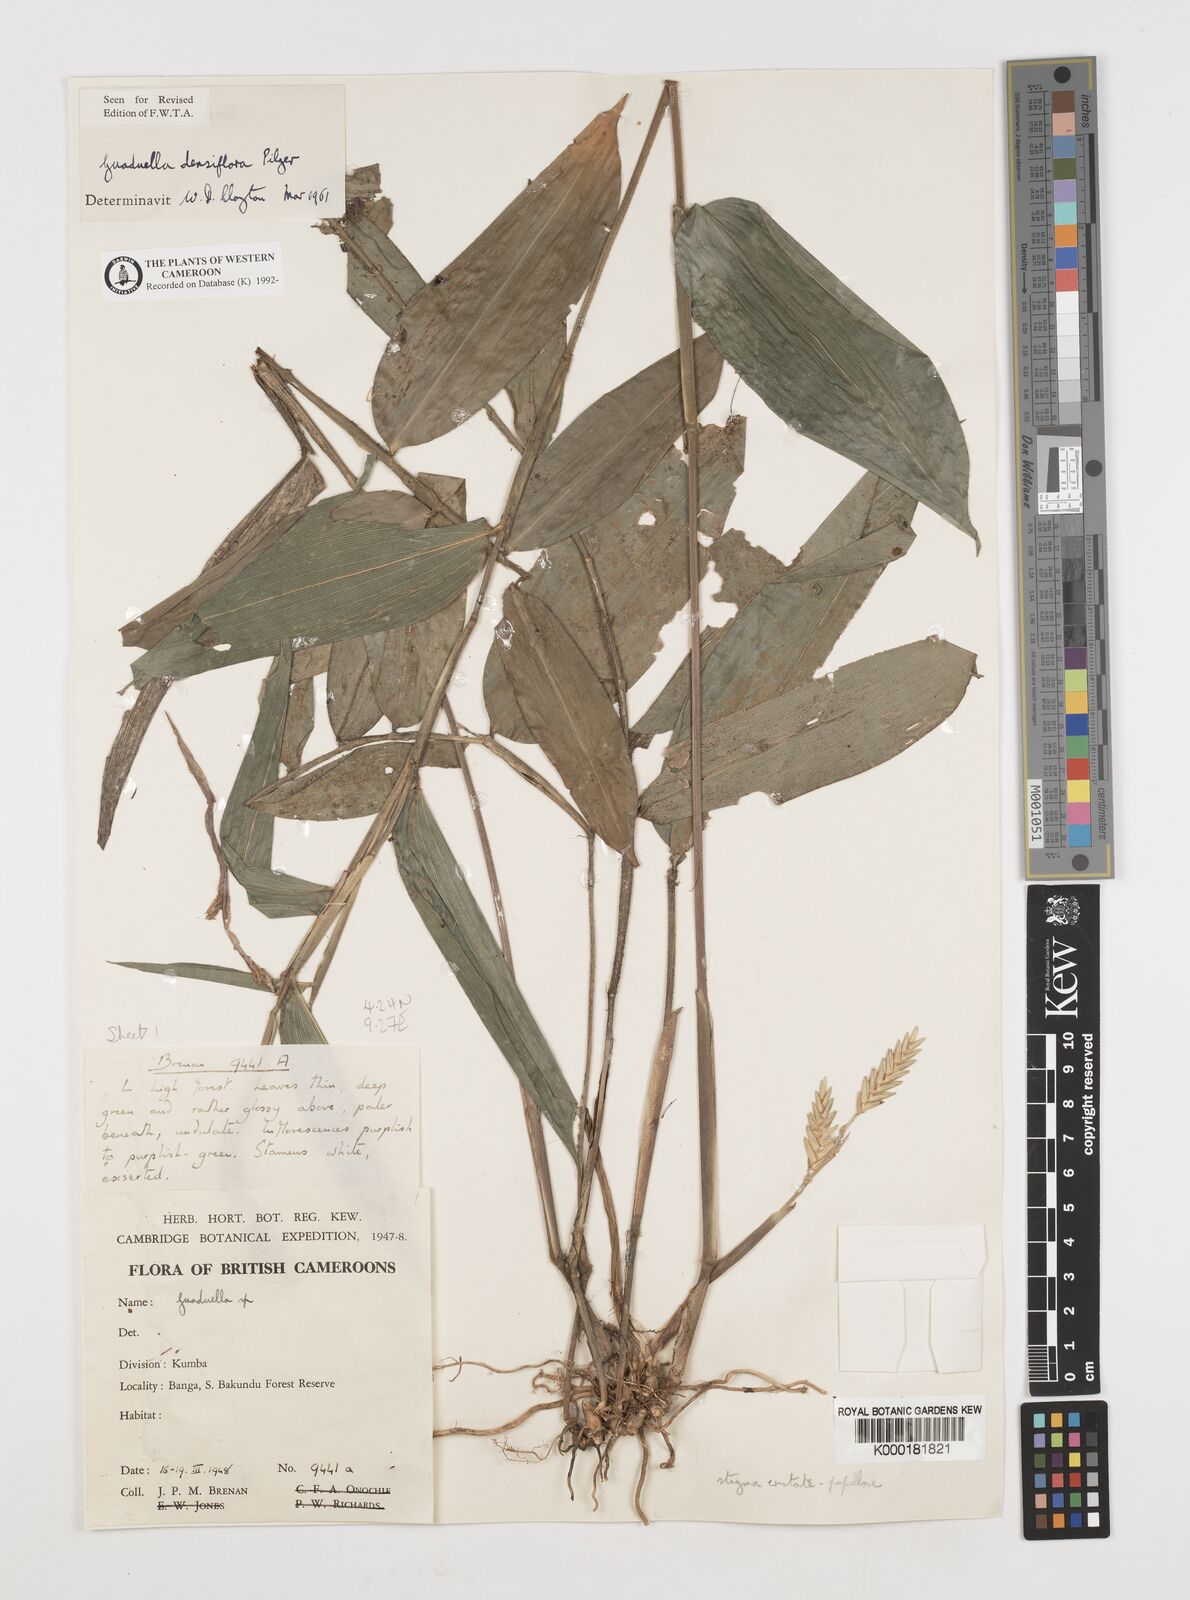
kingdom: Plantae
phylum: Tracheophyta
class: Liliopsida
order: Poales
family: Poaceae
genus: Guaduella
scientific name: Guaduella densiflora
